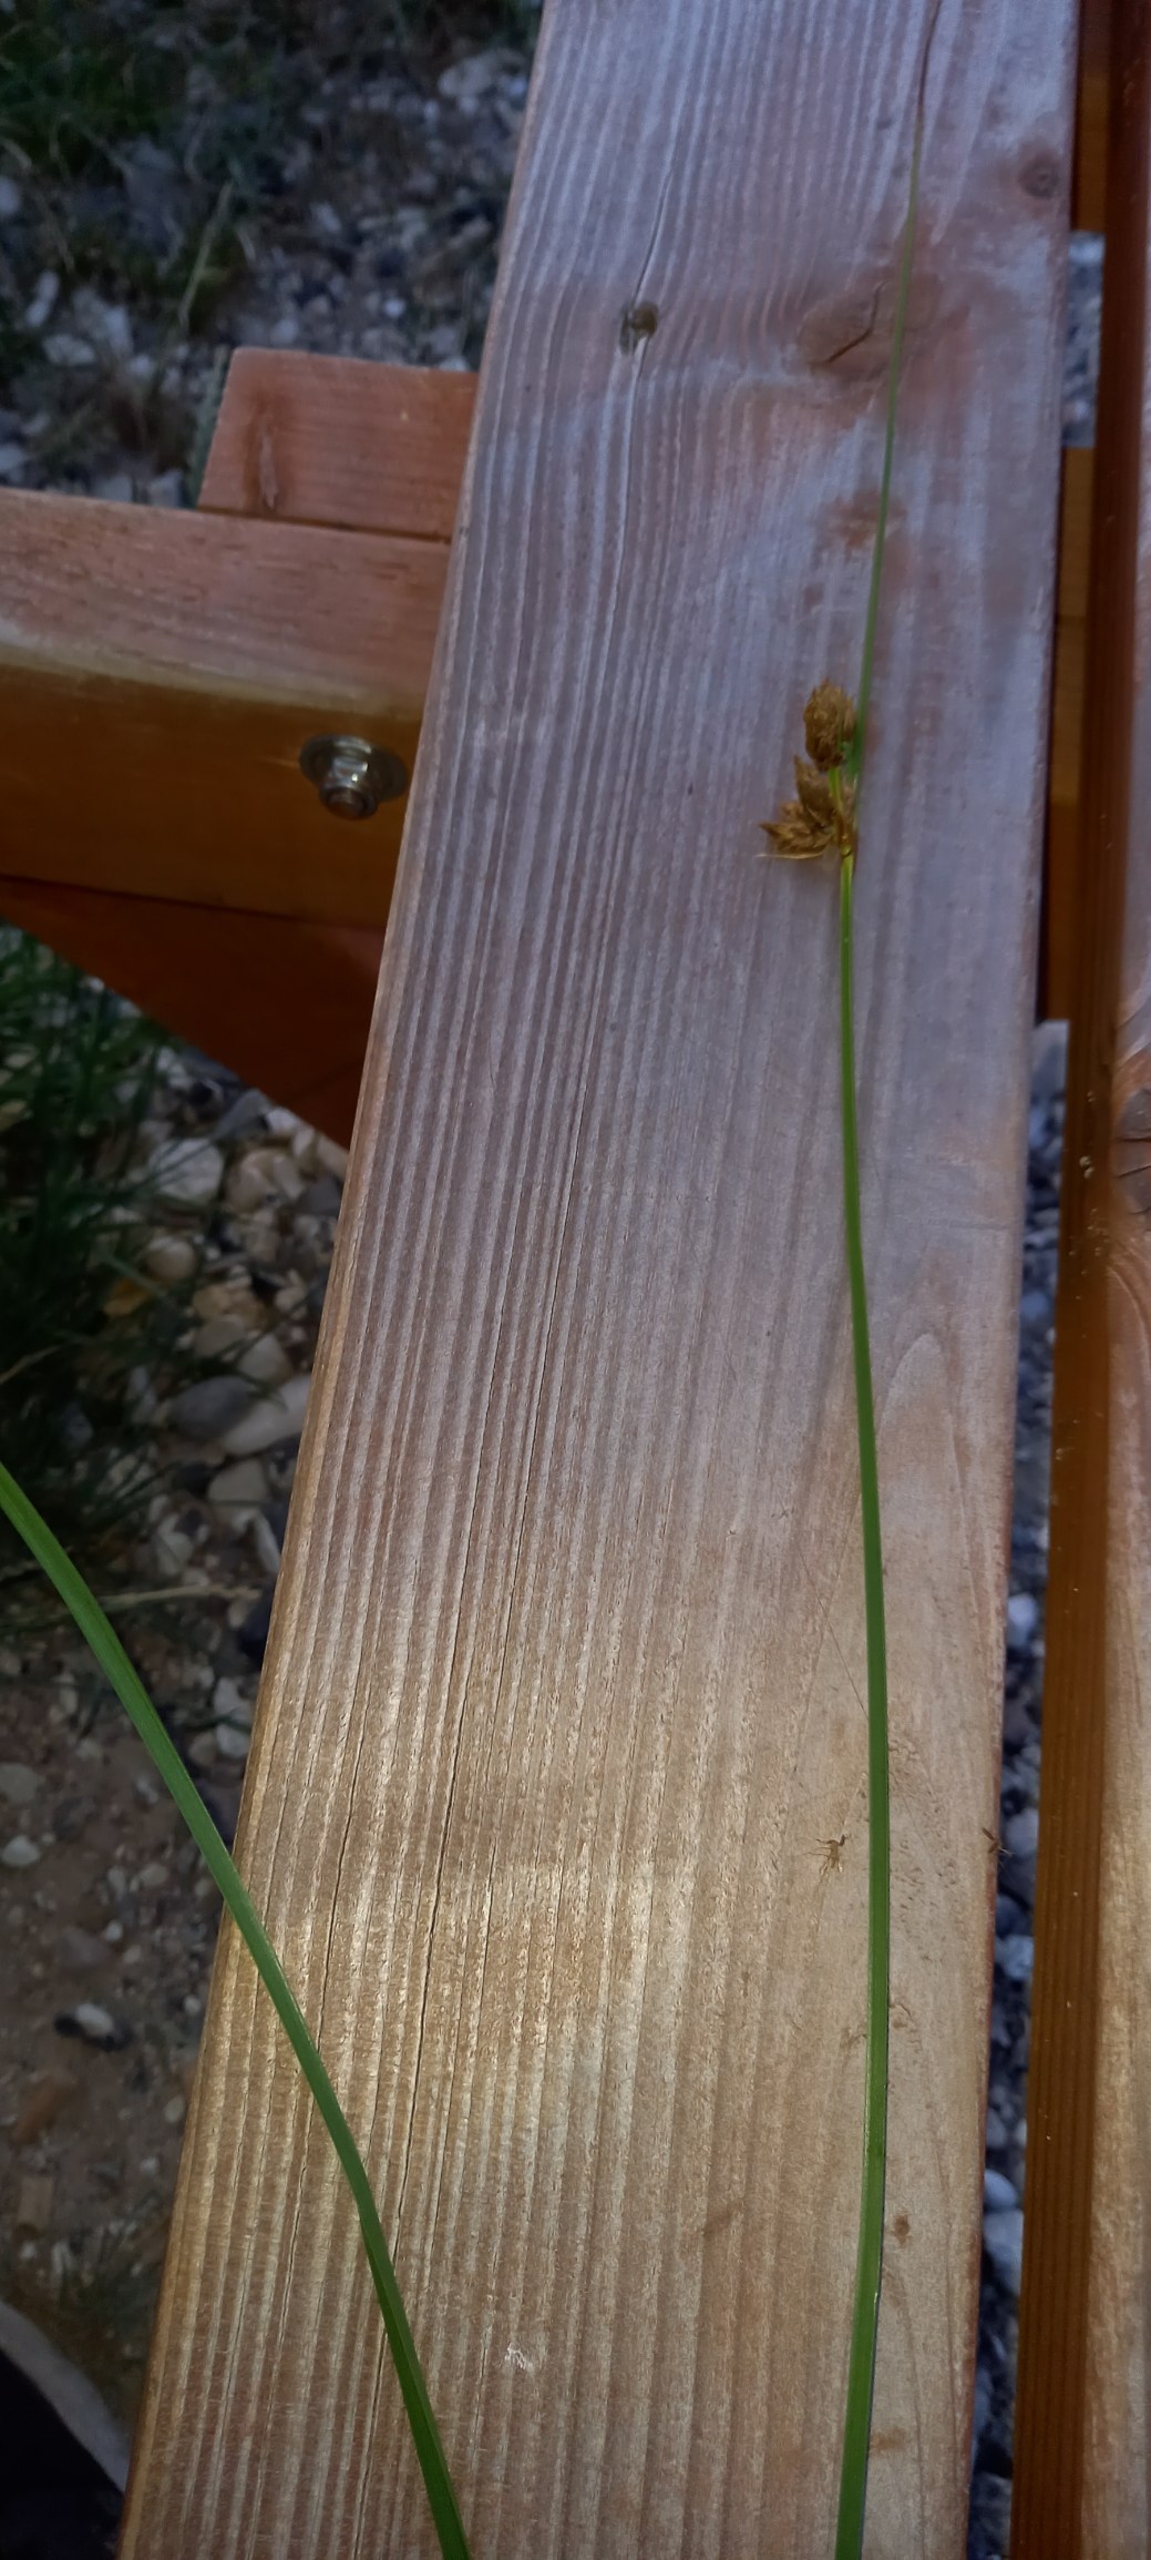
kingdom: Plantae
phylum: Tracheophyta
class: Liliopsida
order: Poales
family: Cyperaceae
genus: Bolboschoenus
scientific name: Bolboschoenus maritimus
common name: Strand-kogleaks
